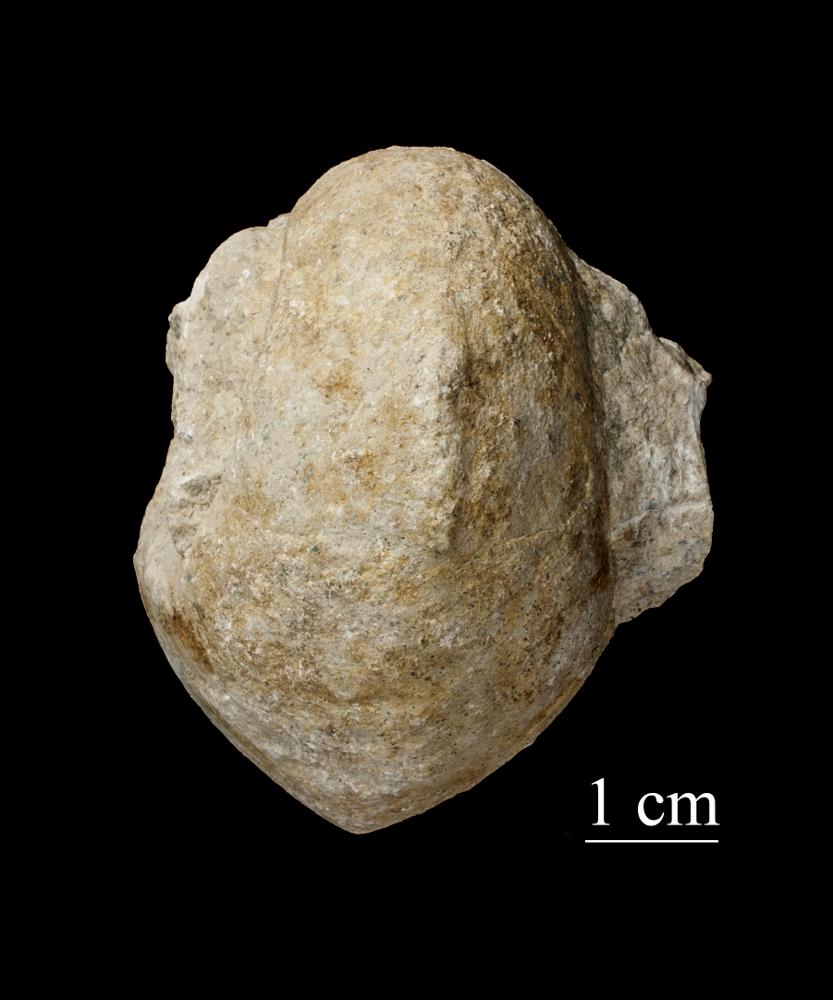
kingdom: Animalia
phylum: Mollusca
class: Gastropoda
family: Bellerophontidae
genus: Bellerophon
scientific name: Bellerophon
